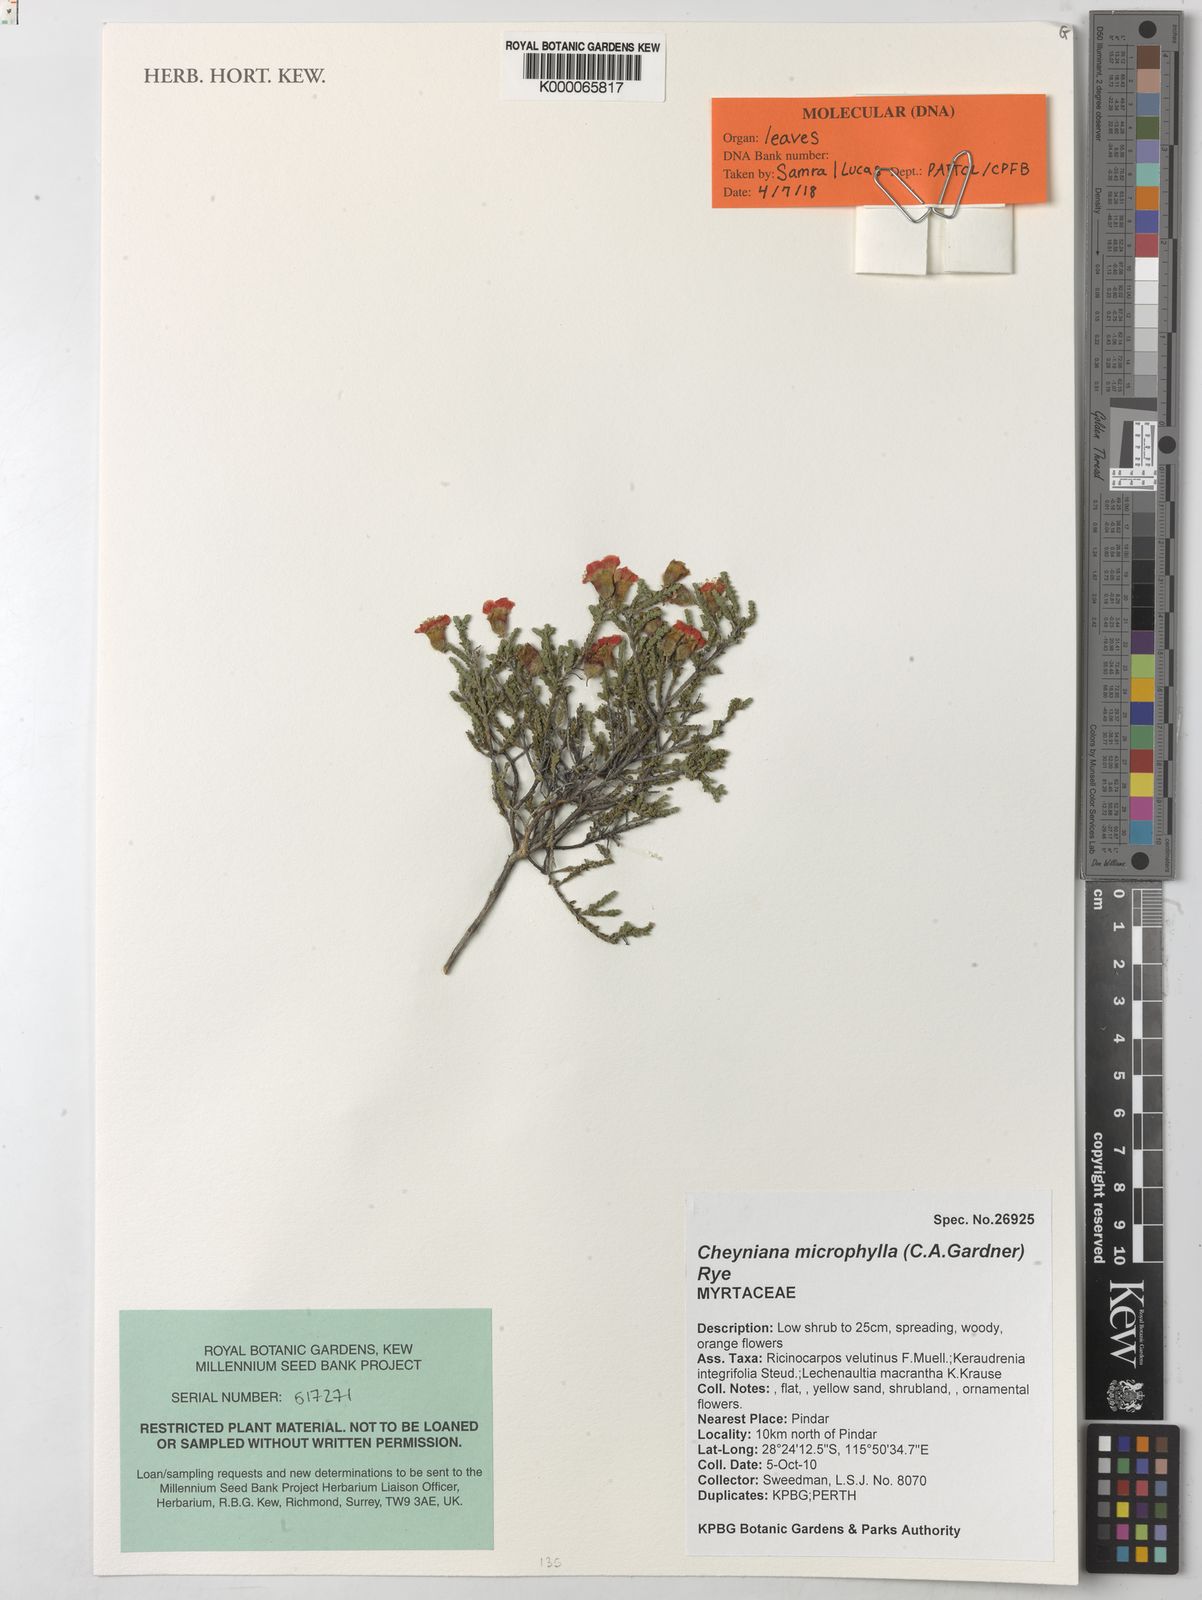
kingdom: Plantae
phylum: Tracheophyta
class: Magnoliopsida
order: Myrtales
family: Myrtaceae
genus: Cheyniana
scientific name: Cheyniana microphylla
